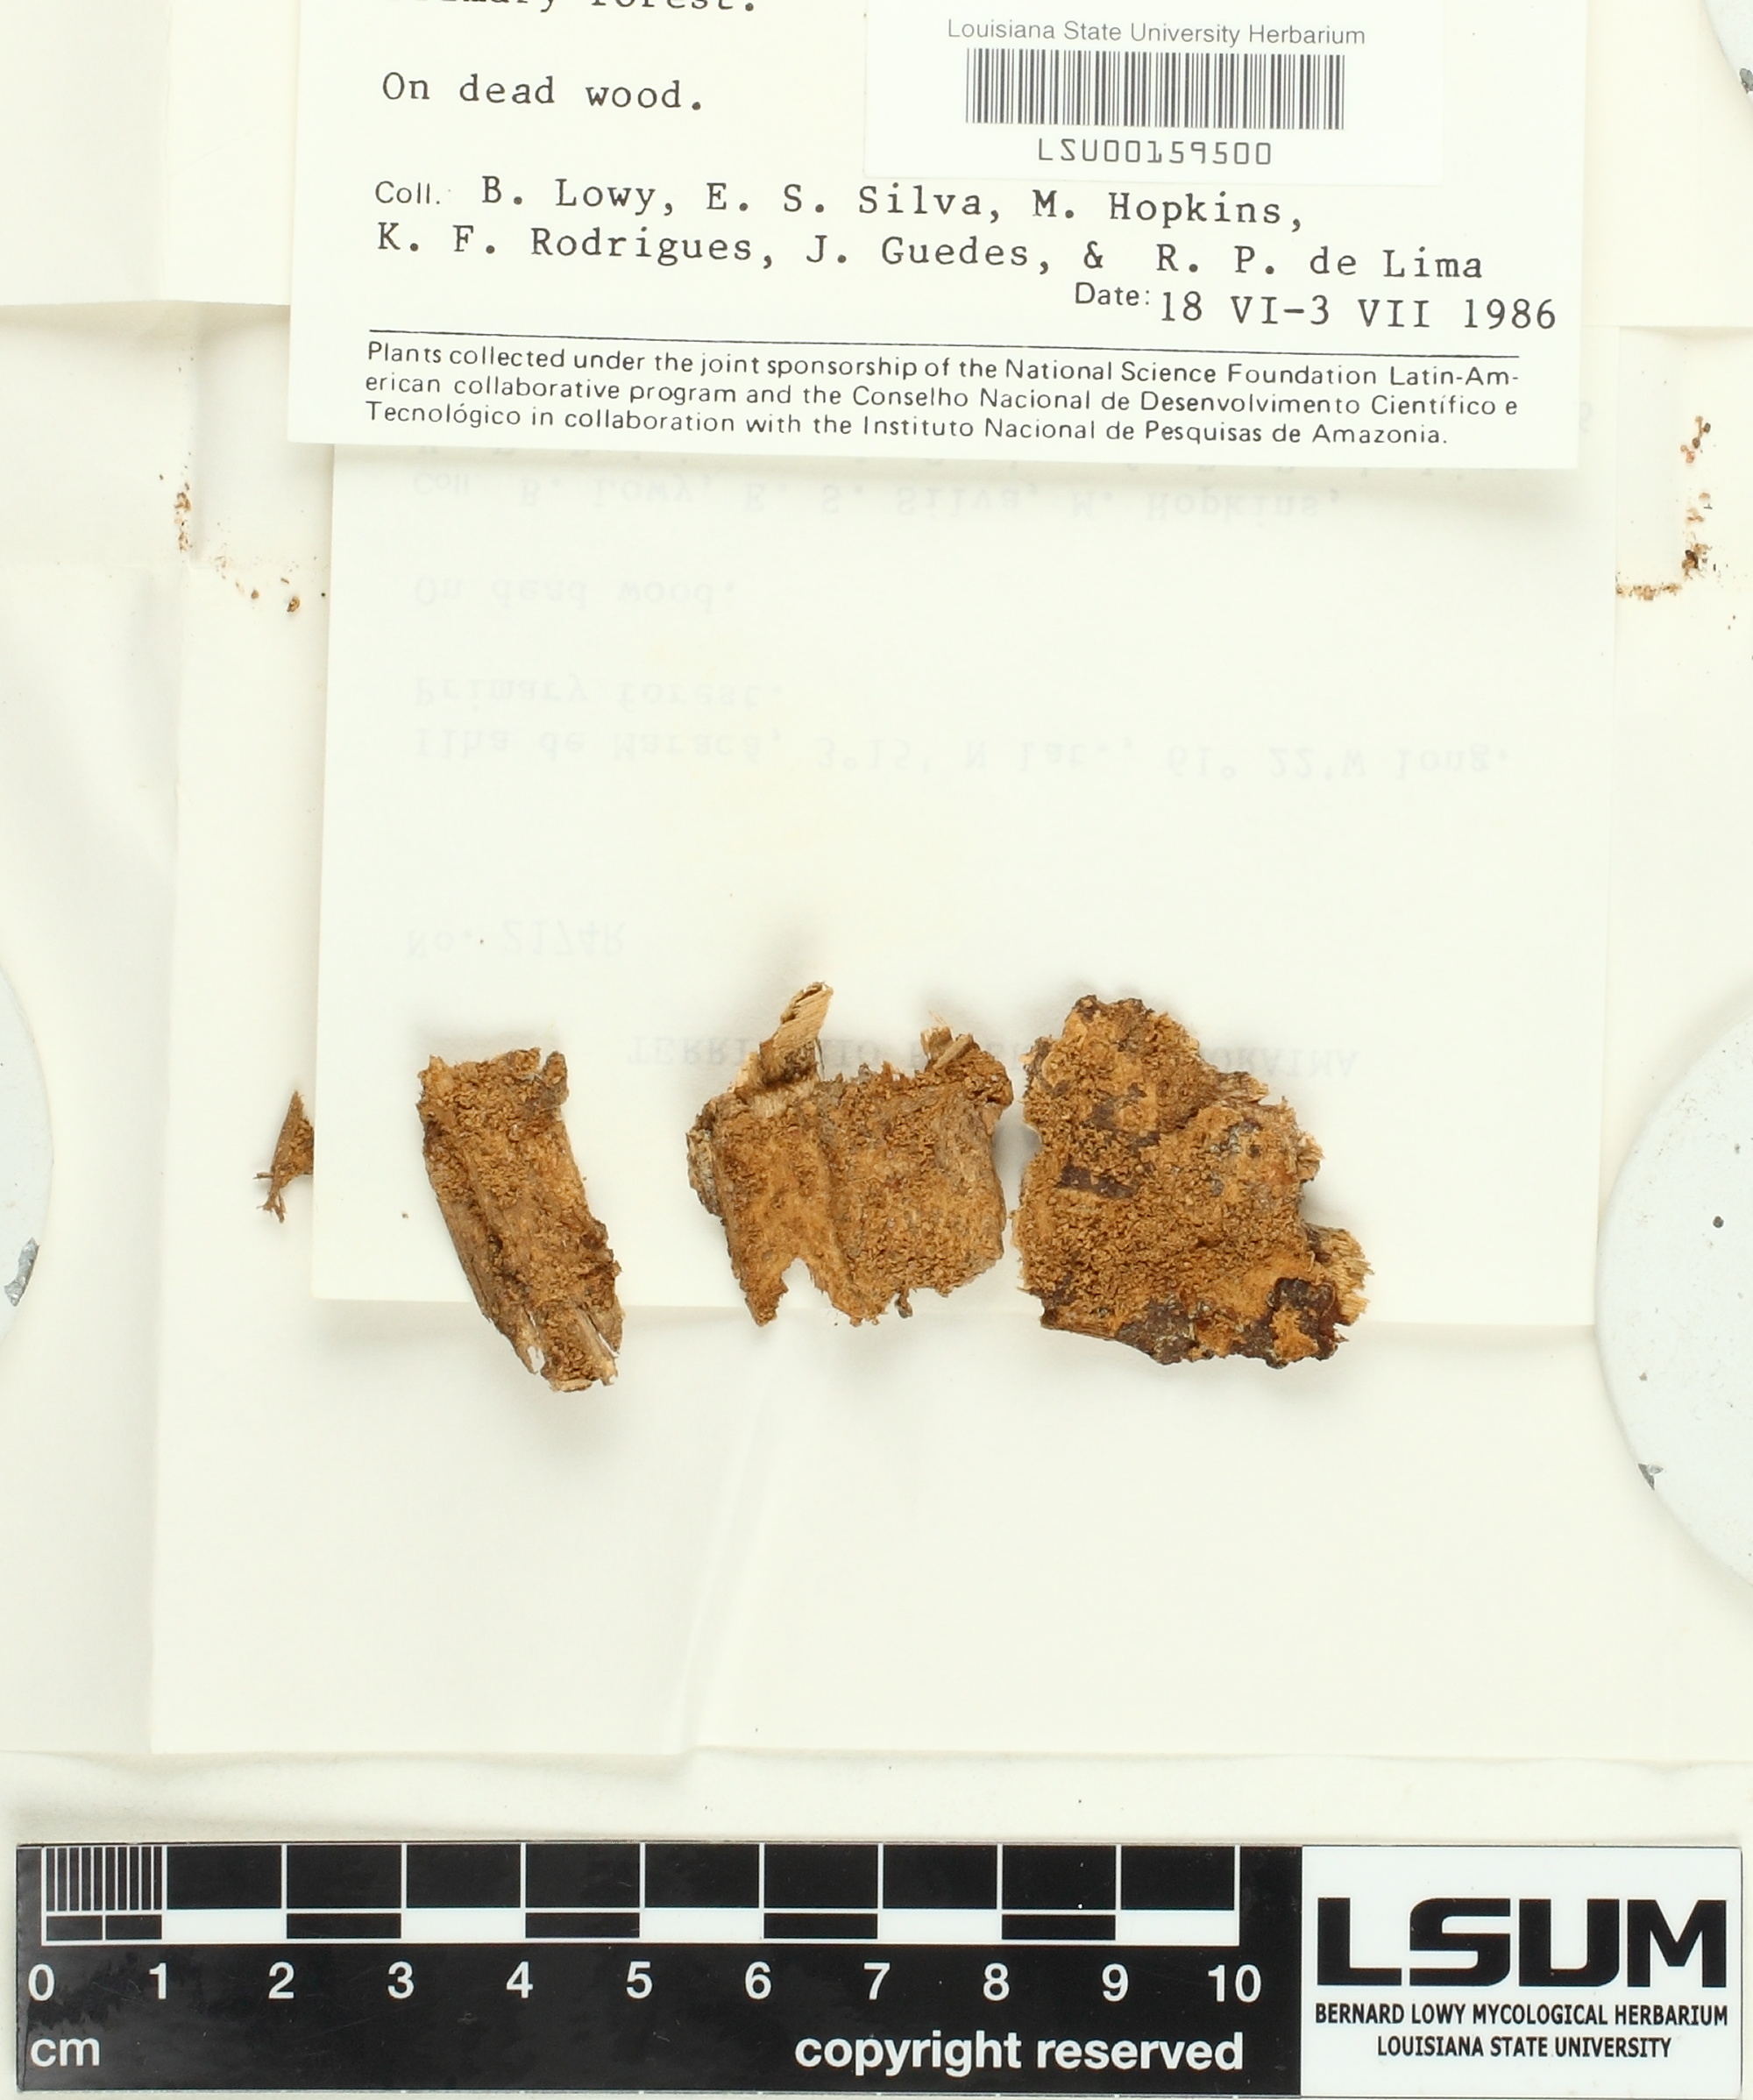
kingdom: Fungi
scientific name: Fungi
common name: Fungi
